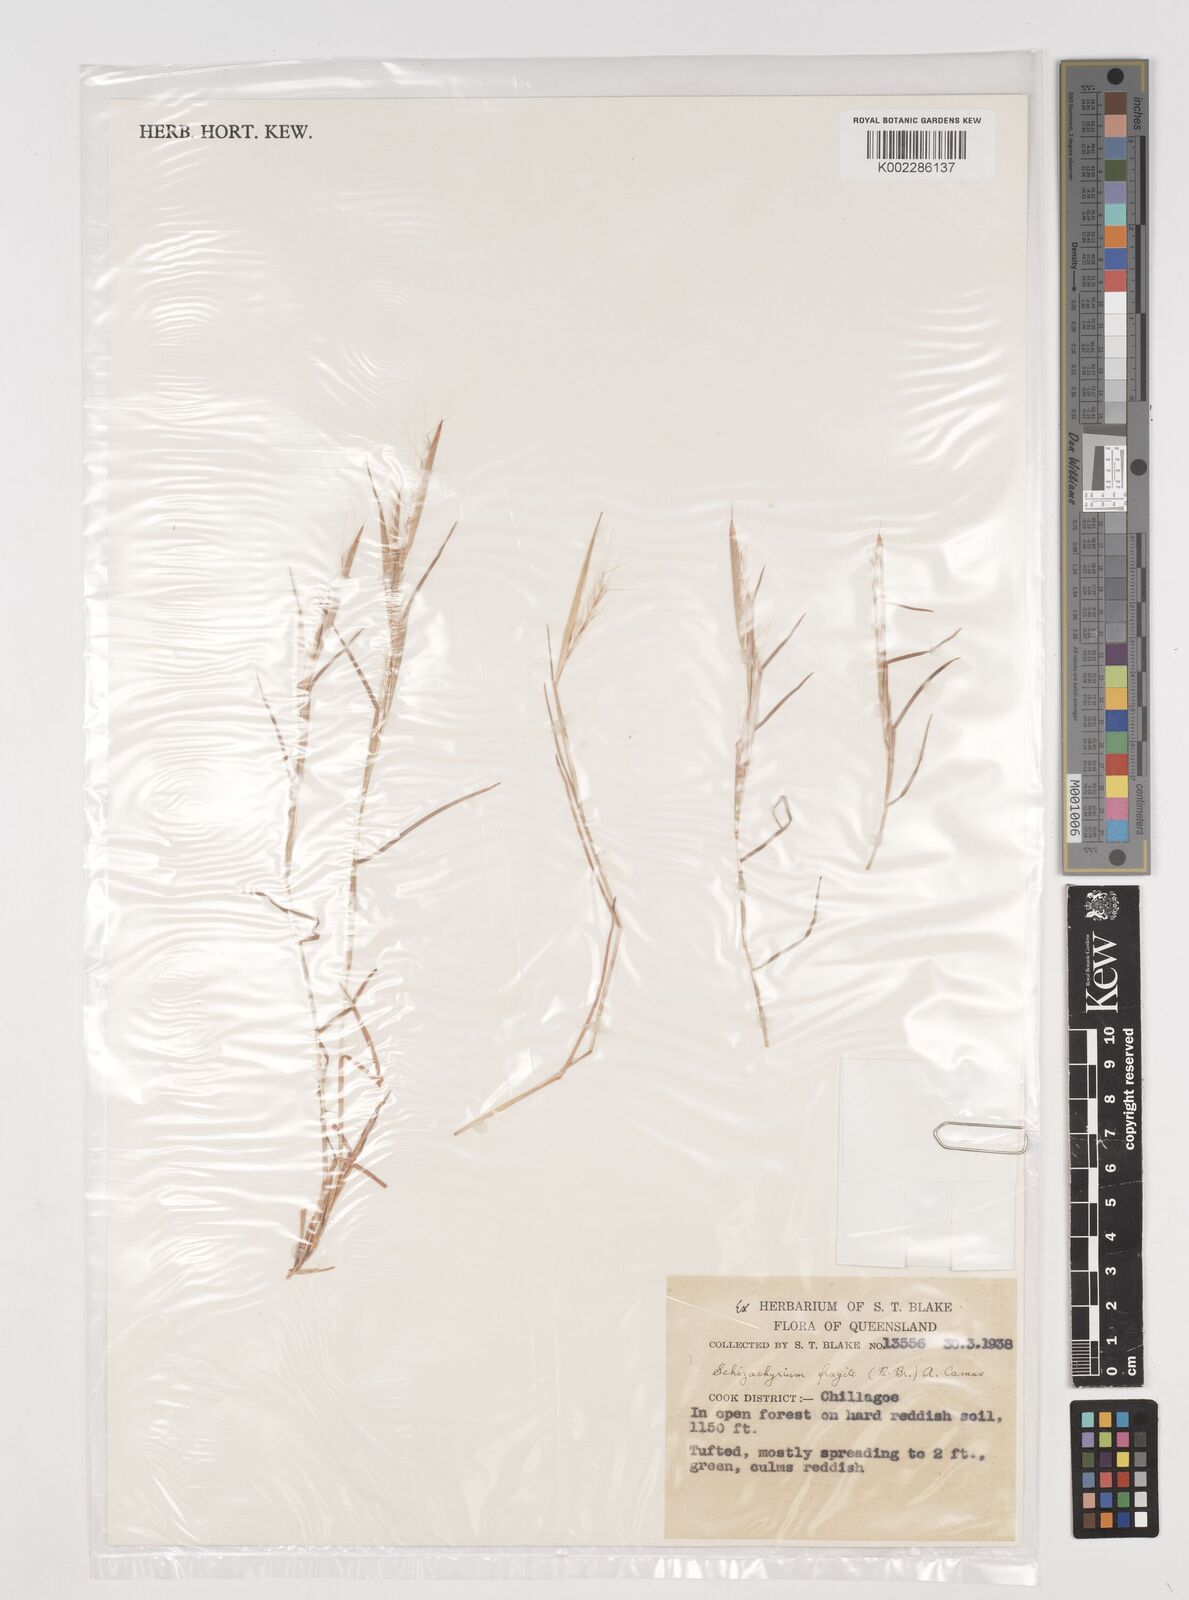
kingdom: Plantae
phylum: Tracheophyta
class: Liliopsida
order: Poales
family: Poaceae
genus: Schizachyrium
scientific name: Schizachyrium fragile
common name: Red spathe grass
